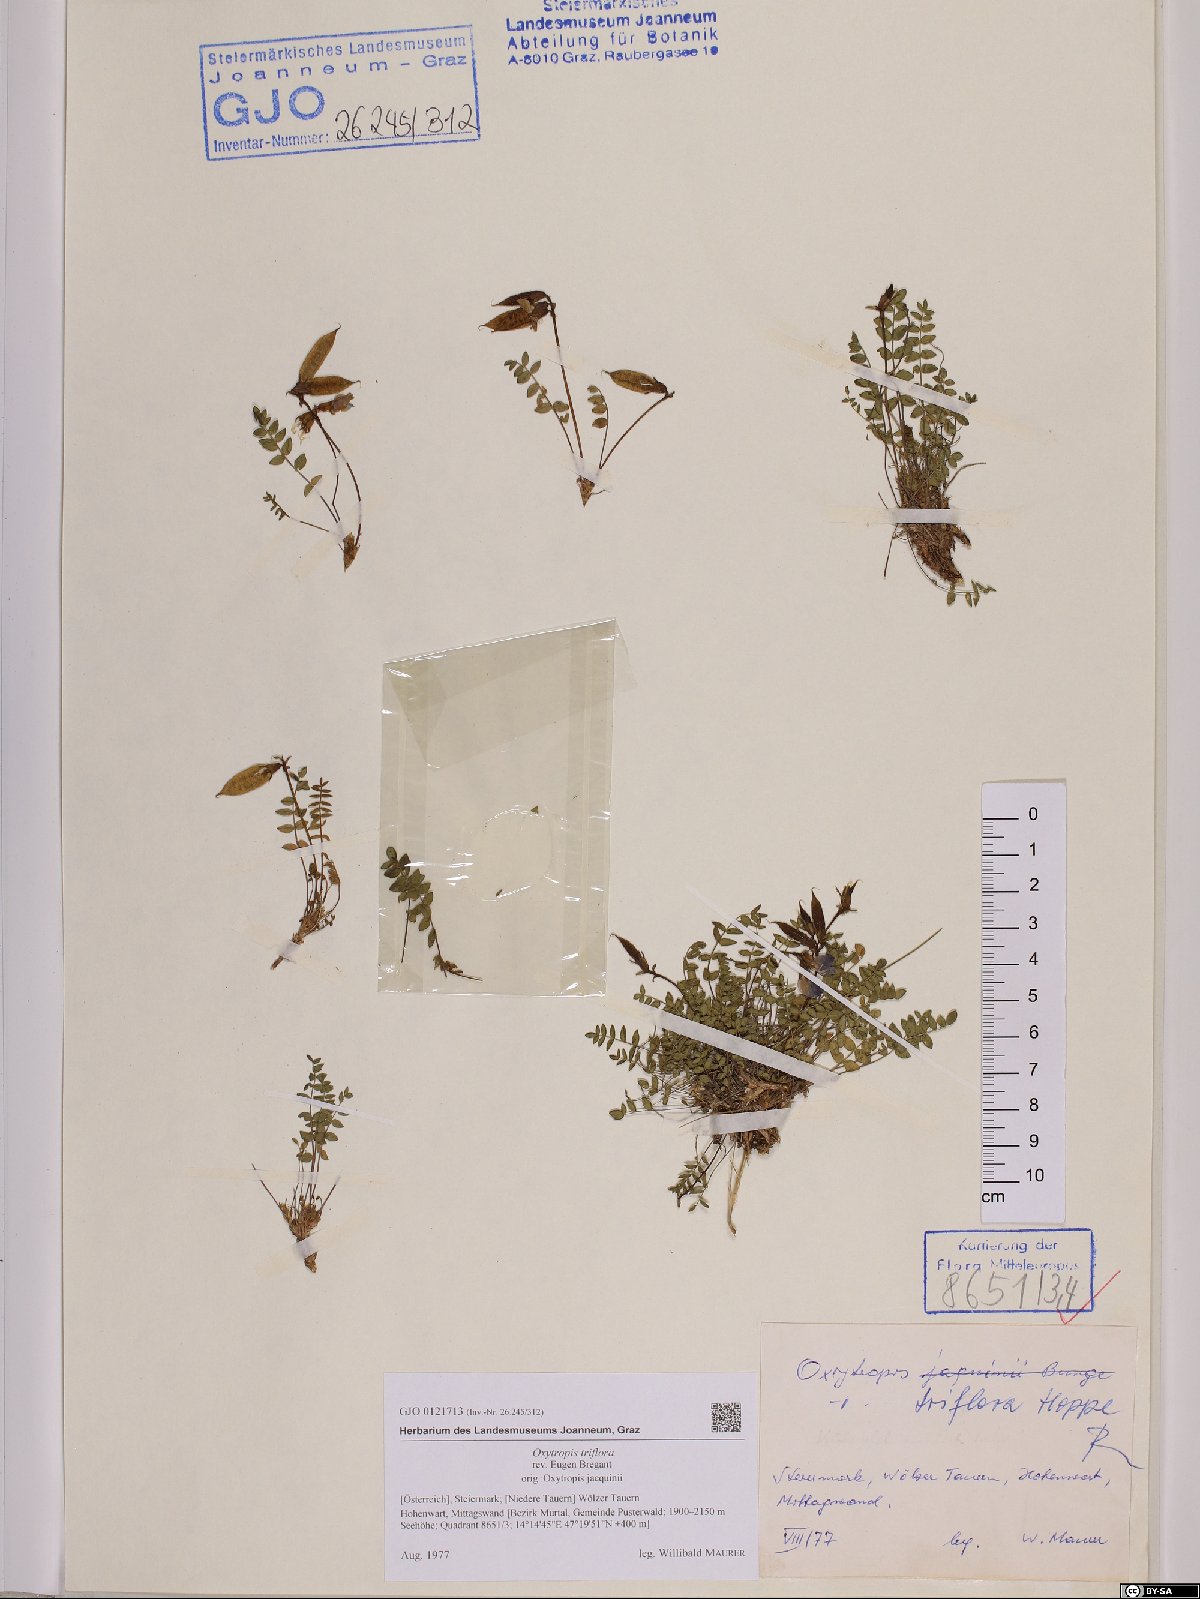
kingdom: Plantae
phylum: Tracheophyta
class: Magnoliopsida
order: Fabales
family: Fabaceae
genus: Oxytropis
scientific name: Oxytropis triflora
